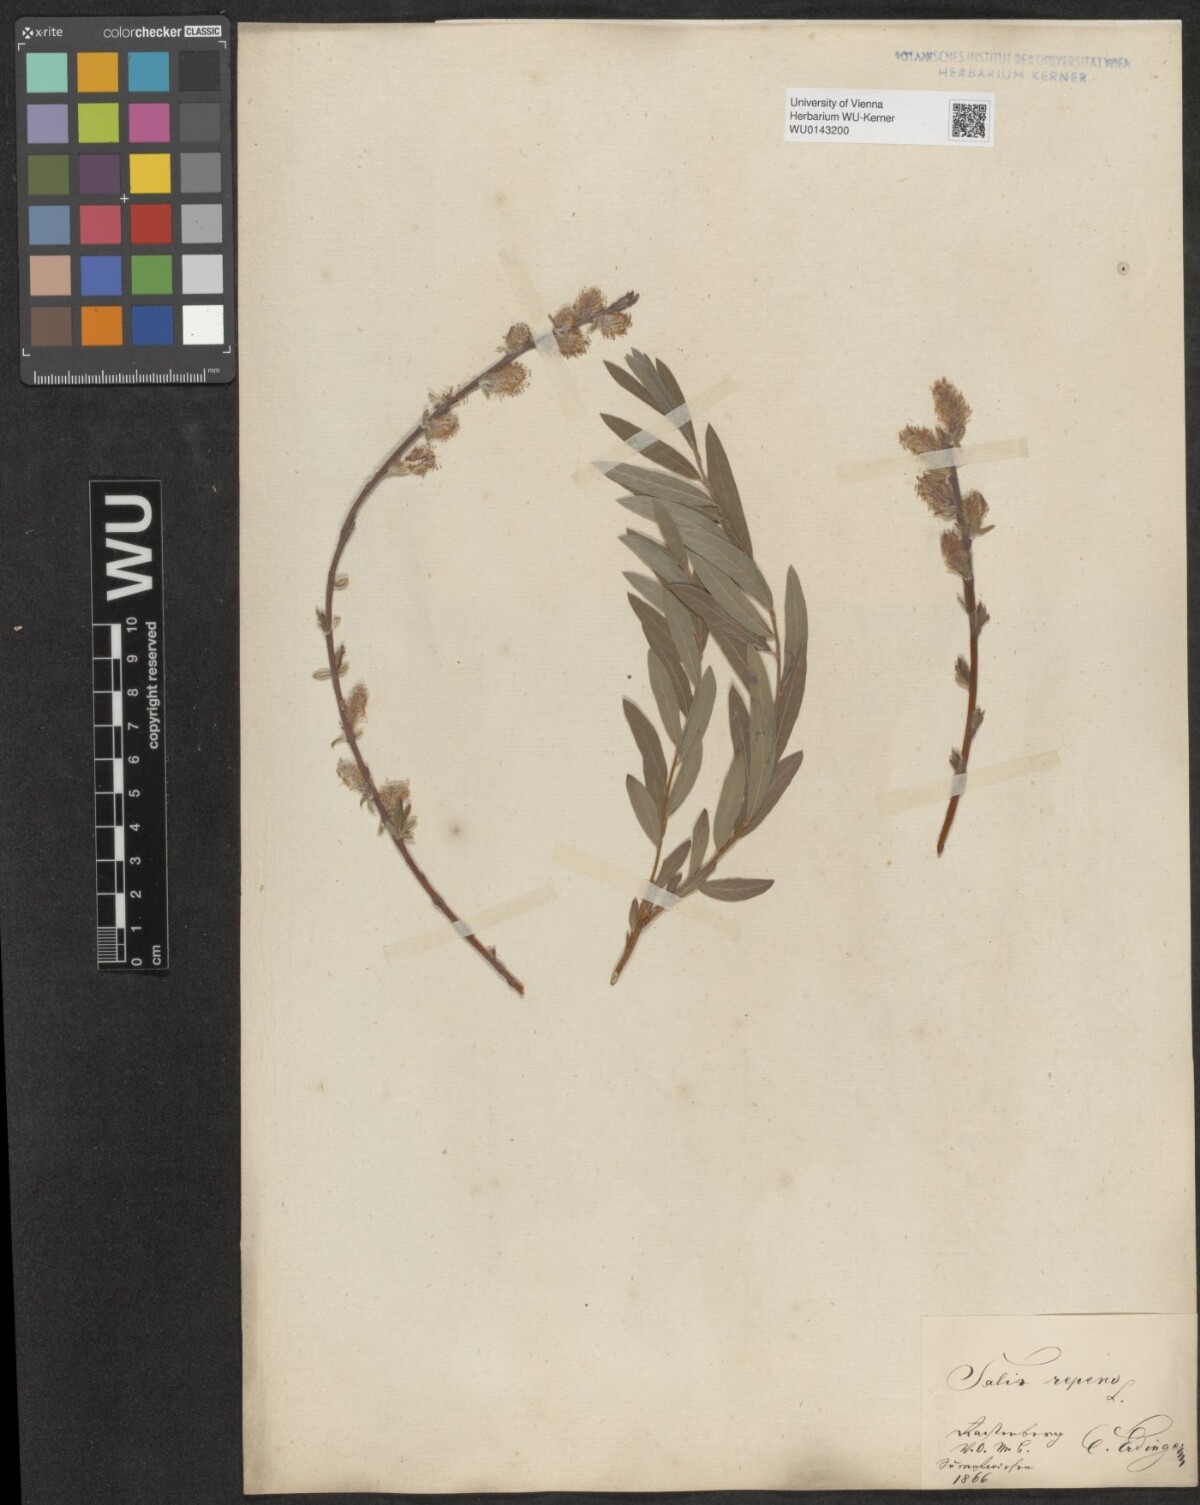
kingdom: Plantae
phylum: Tracheophyta
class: Magnoliopsida
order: Malpighiales
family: Salicaceae
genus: Salix
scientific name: Salix repens
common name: Creeping willow
